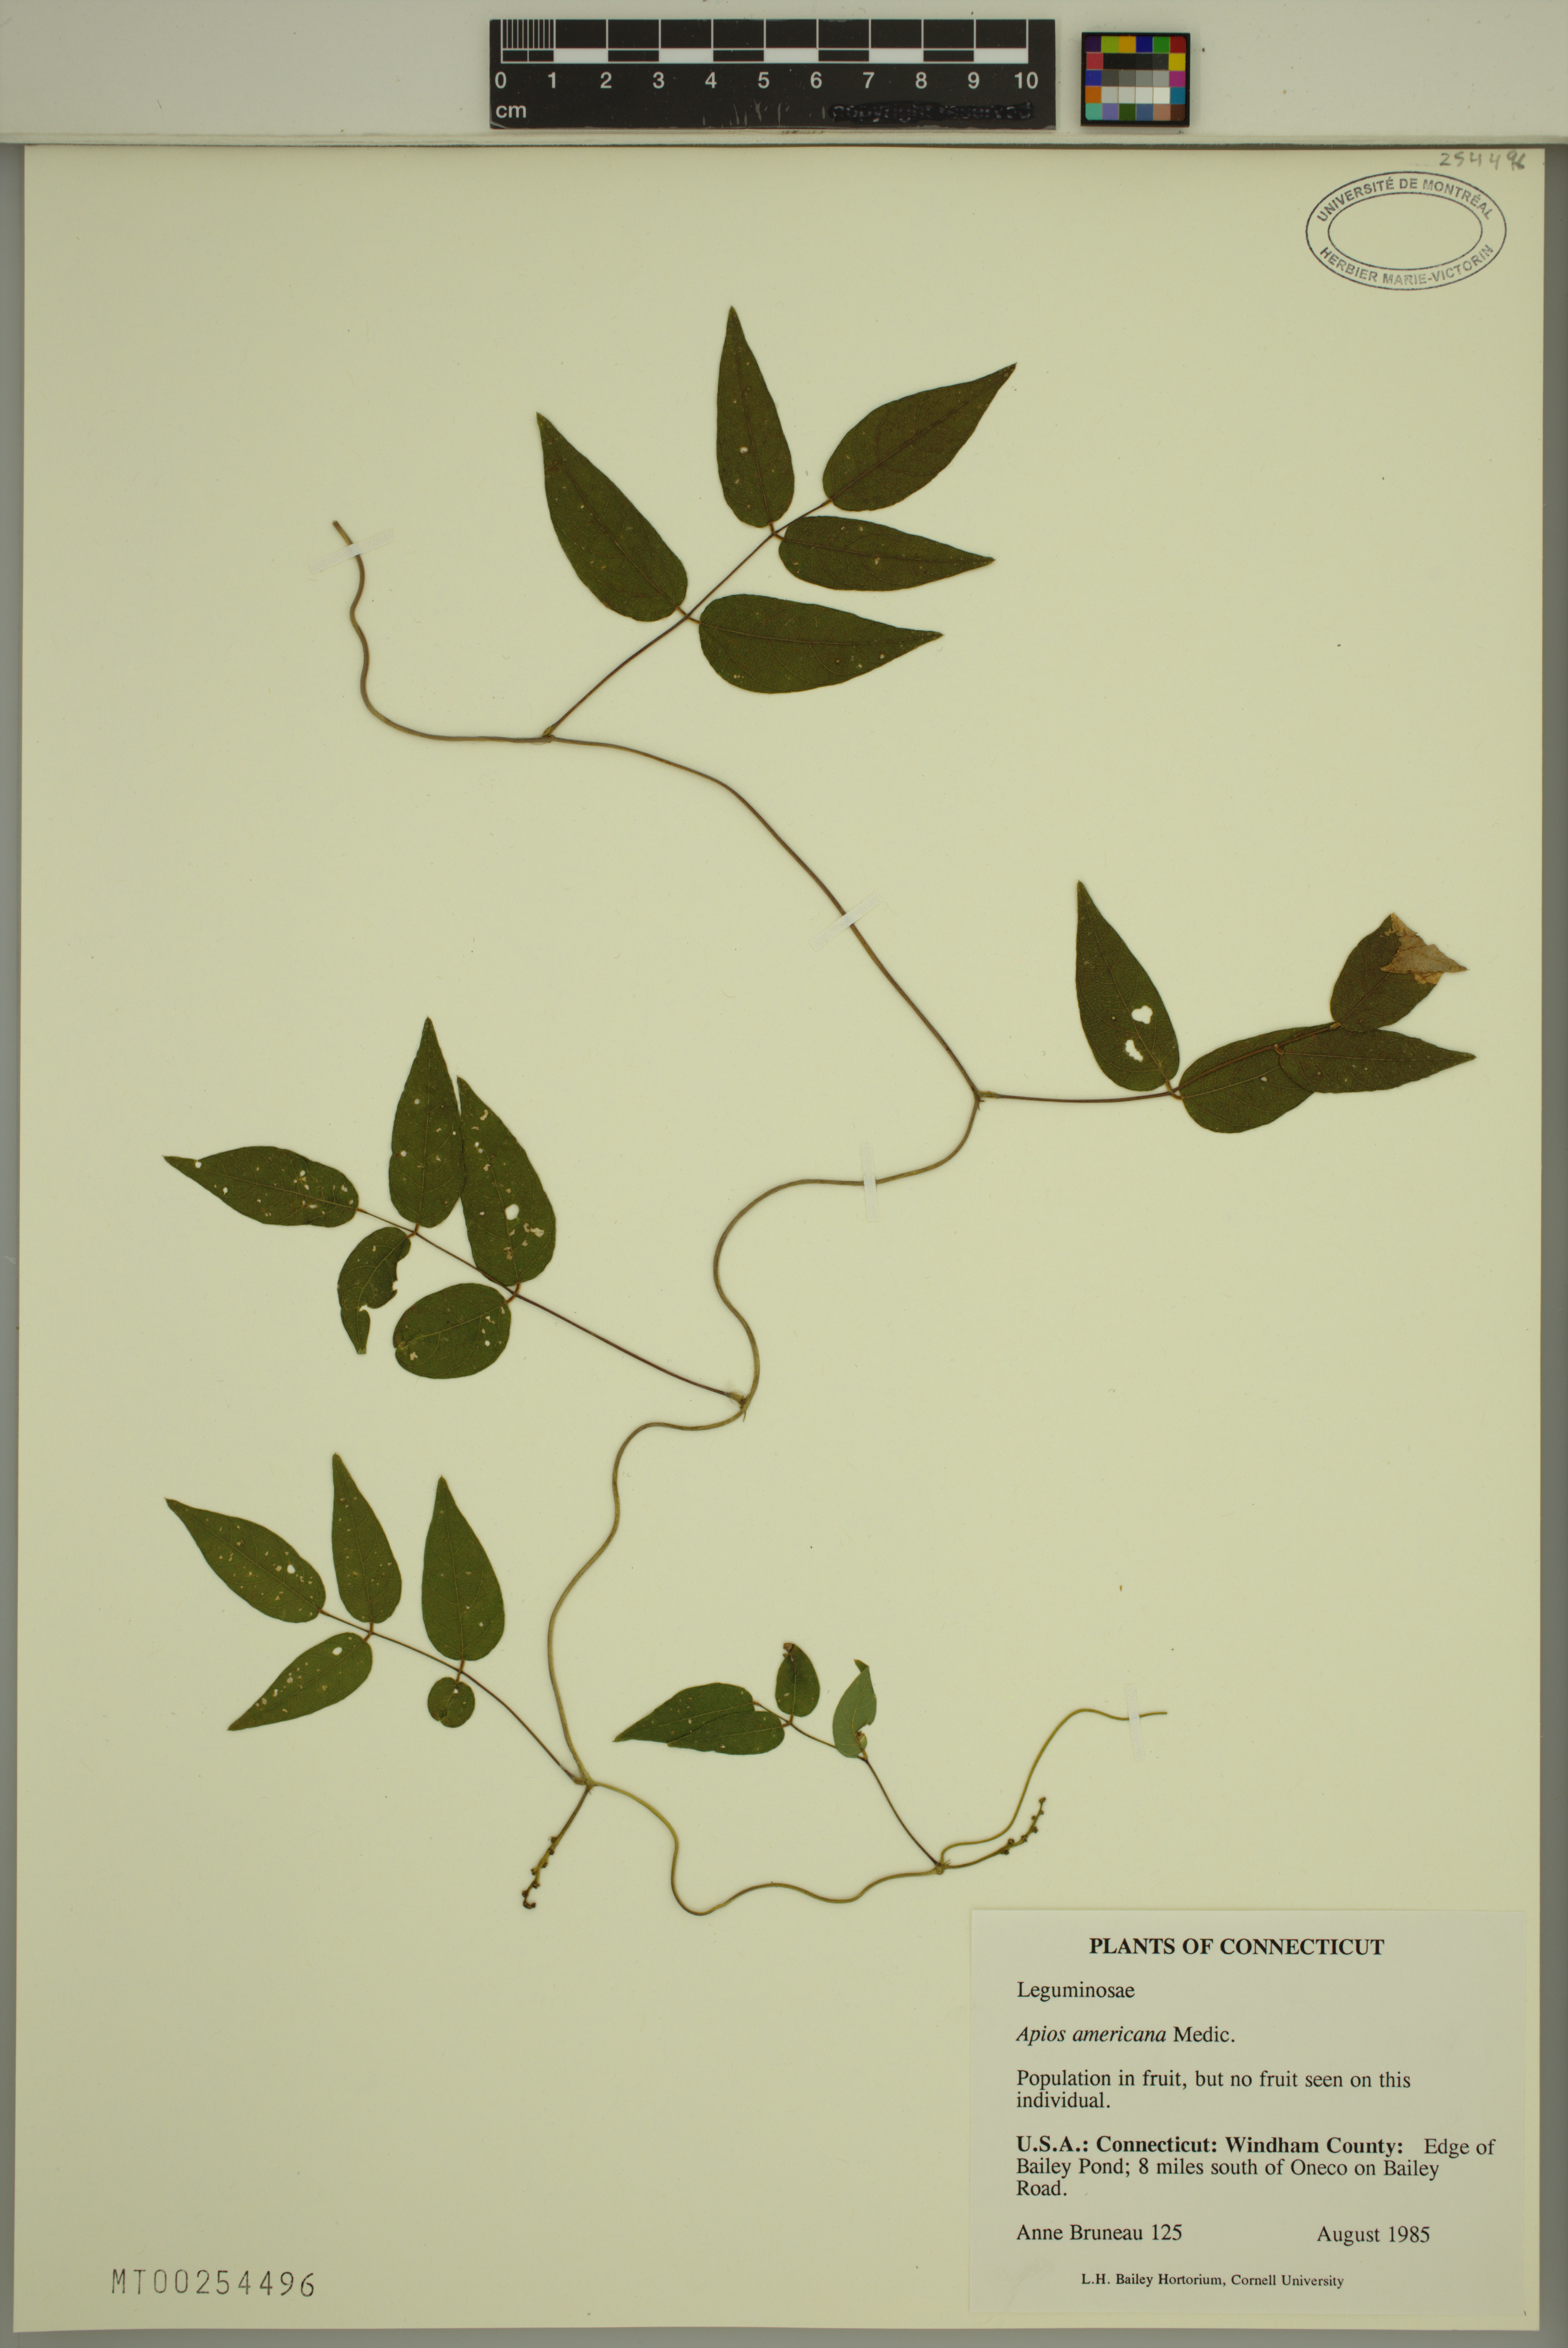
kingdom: Plantae
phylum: Tracheophyta
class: Magnoliopsida
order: Fabales
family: Fabaceae
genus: Apios
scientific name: Apios americana
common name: American potato-bean
